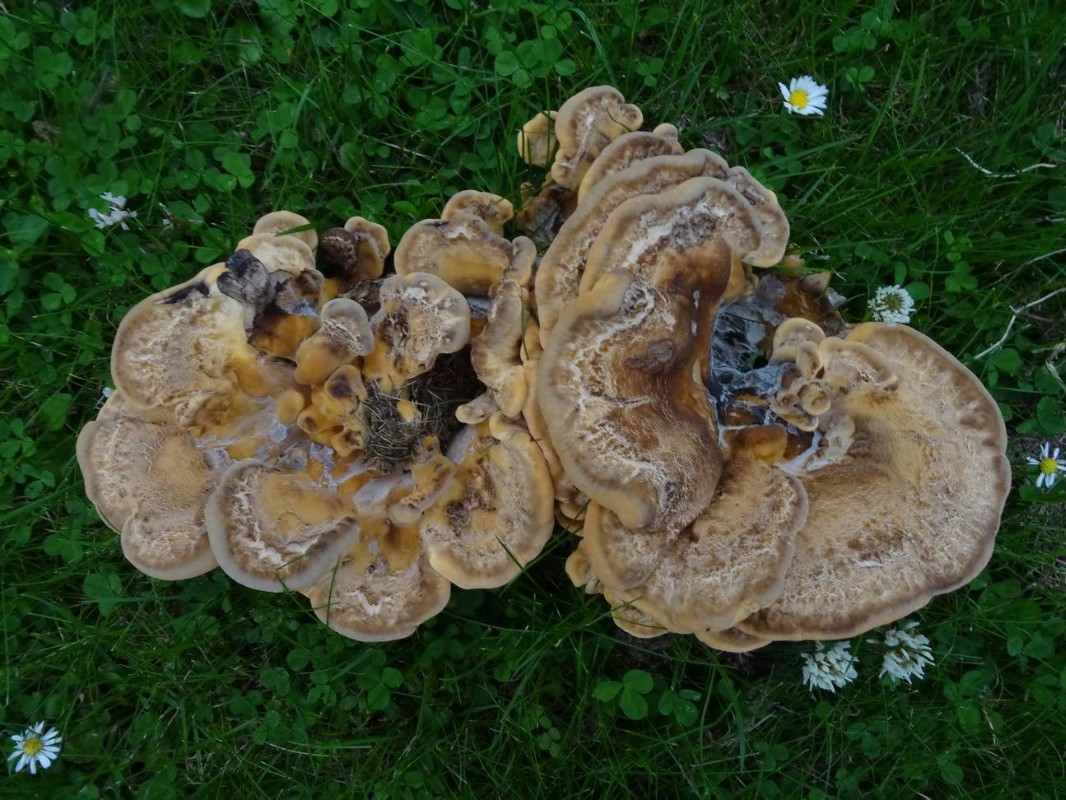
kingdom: Fungi
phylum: Basidiomycota
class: Agaricomycetes
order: Polyporales
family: Meripilaceae
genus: Meripilus
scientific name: Meripilus giganteus
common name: kæmpeporesvamp
